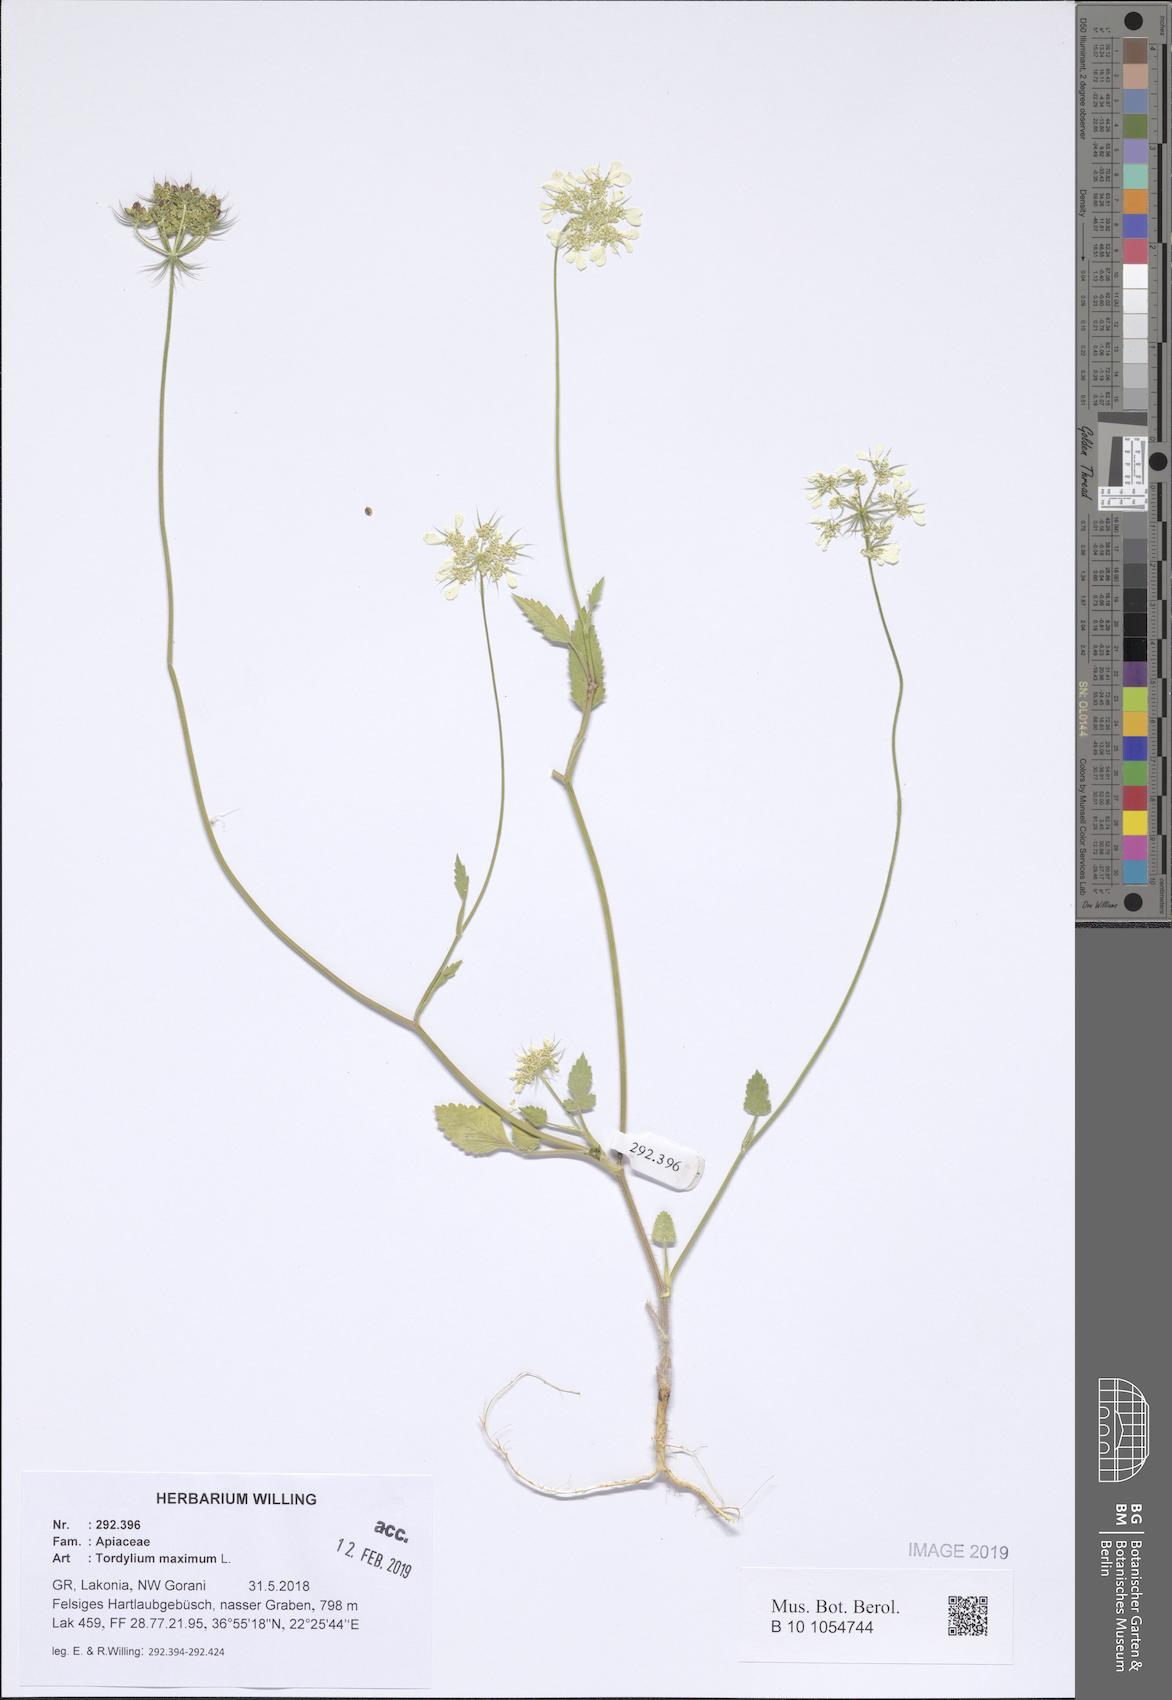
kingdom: Plantae
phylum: Tracheophyta
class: Magnoliopsida
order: Apiales
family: Apiaceae
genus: Tordylium
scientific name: Tordylium maximum
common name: Hartwort
